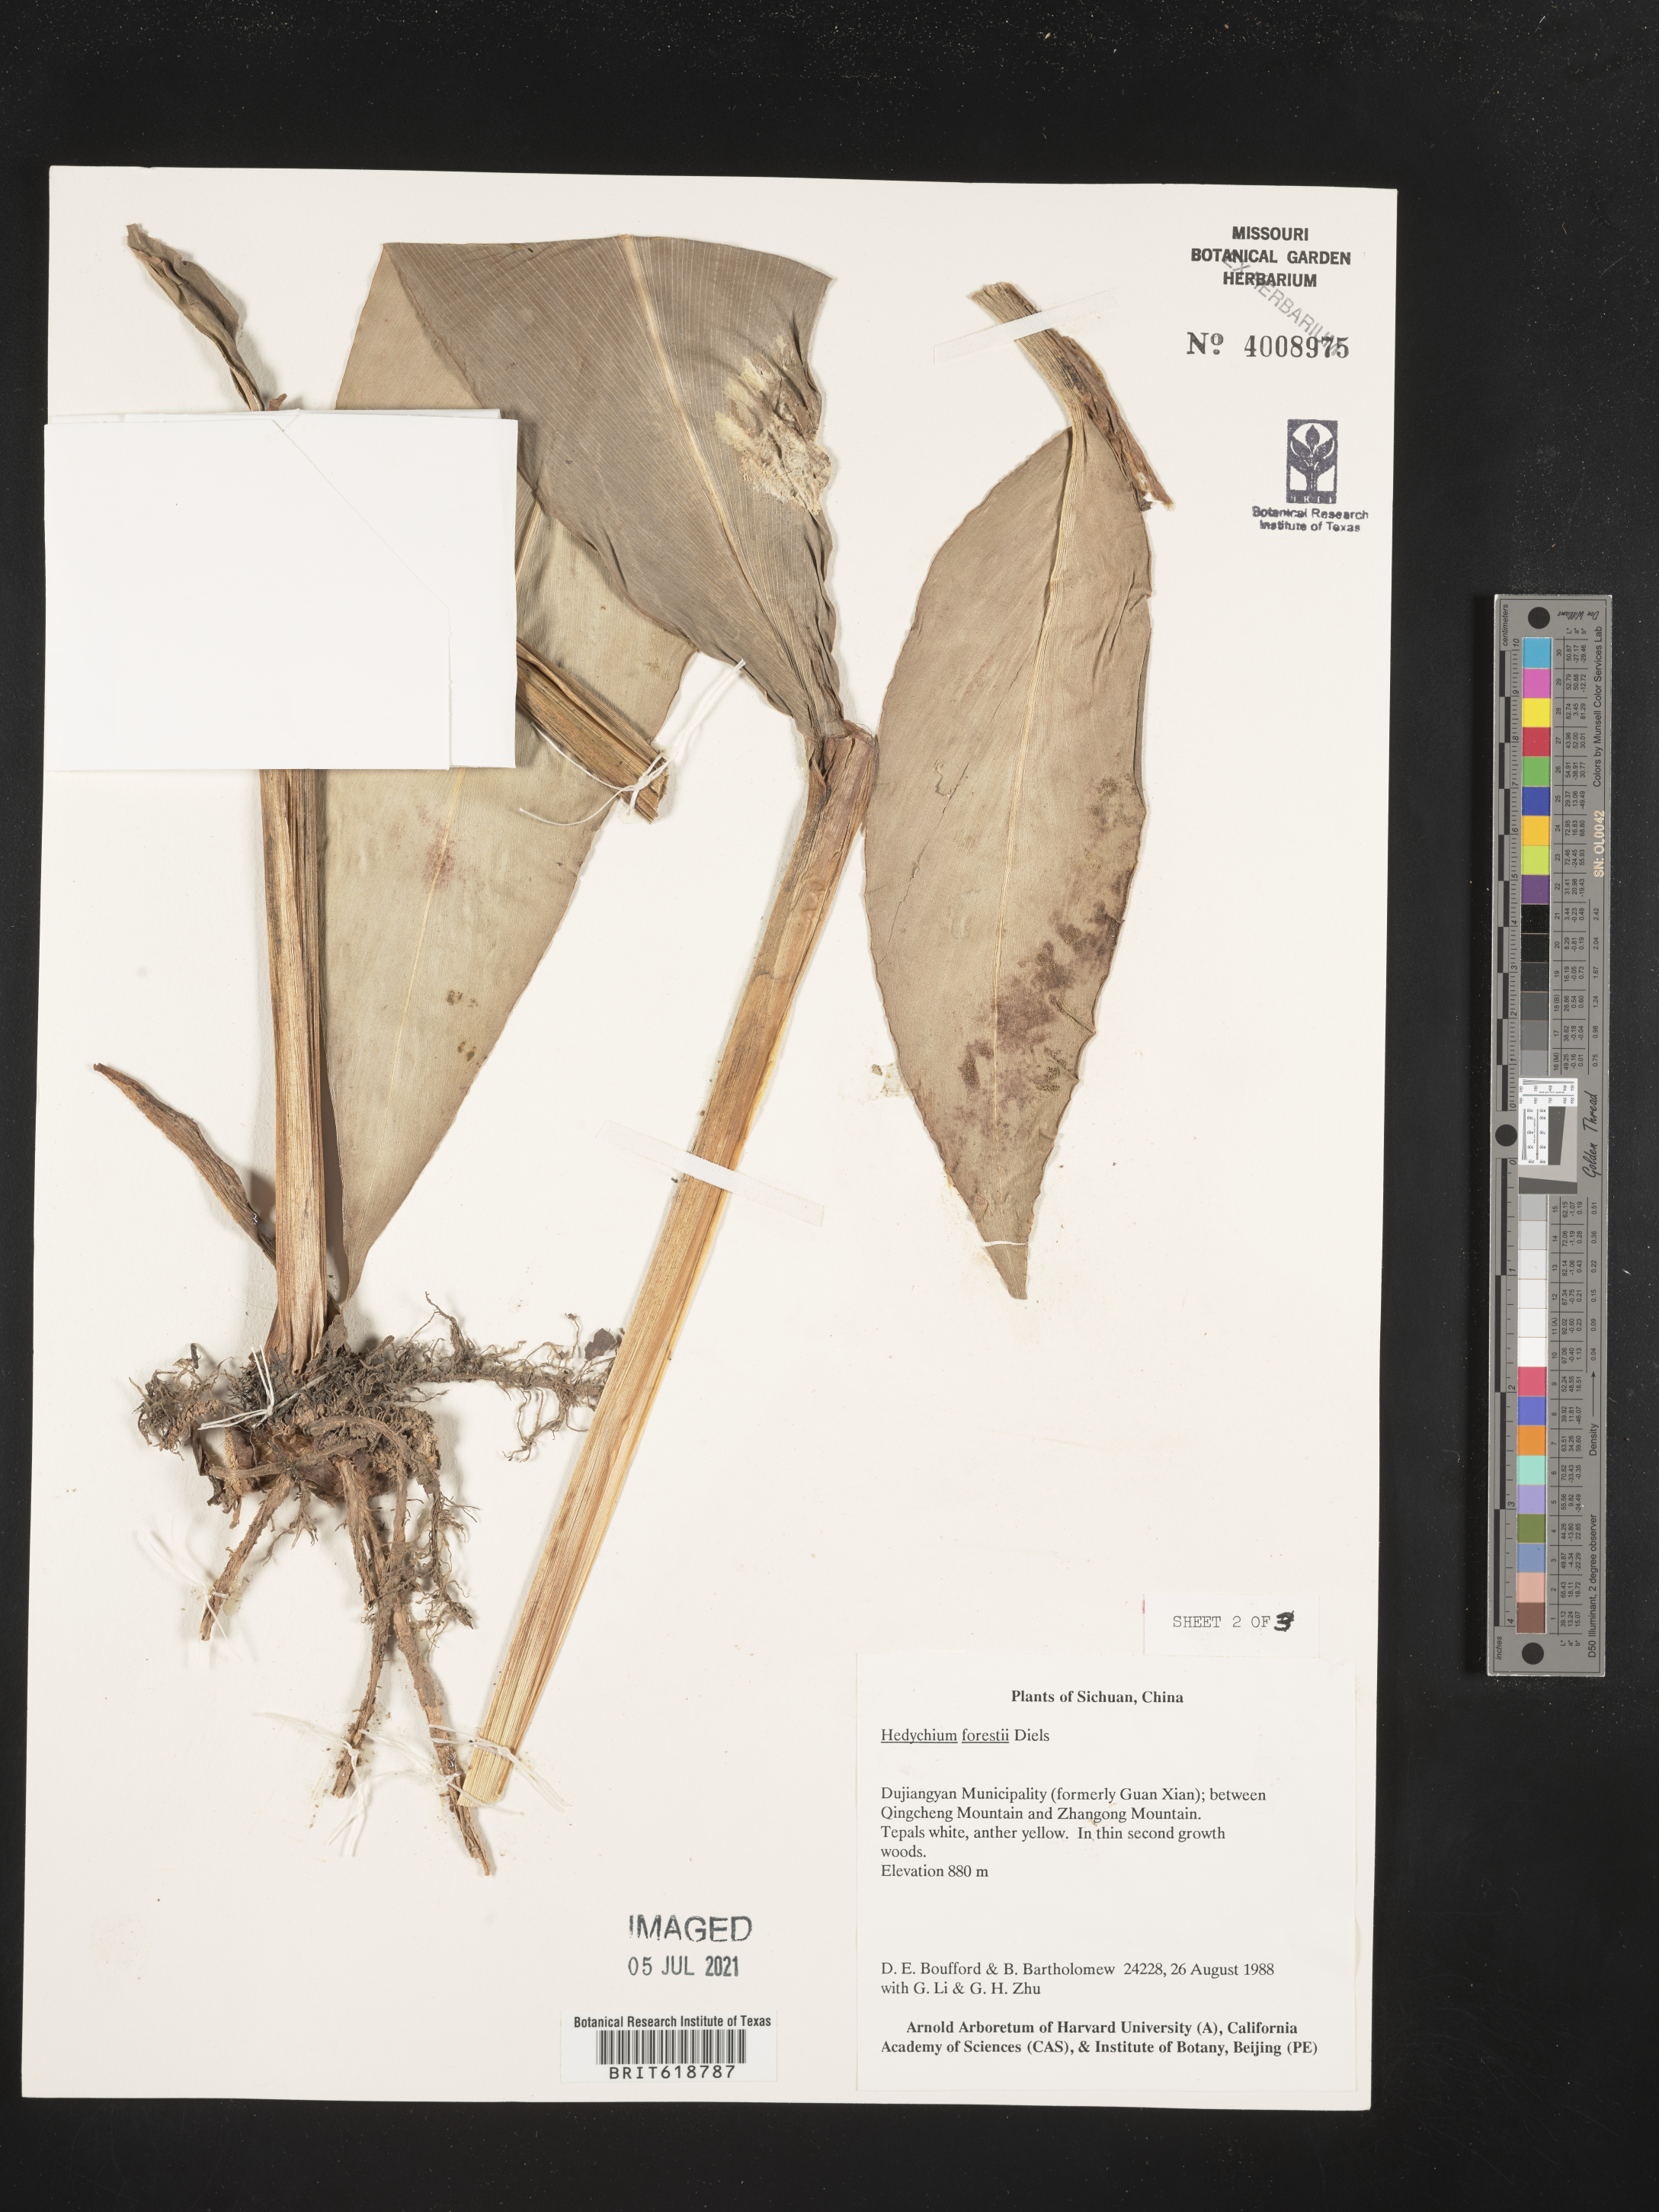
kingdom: Plantae
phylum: Tracheophyta
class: Liliopsida
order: Zingiberales
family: Zingiberaceae
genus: Hedychium
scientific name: Hedychium forrestii
